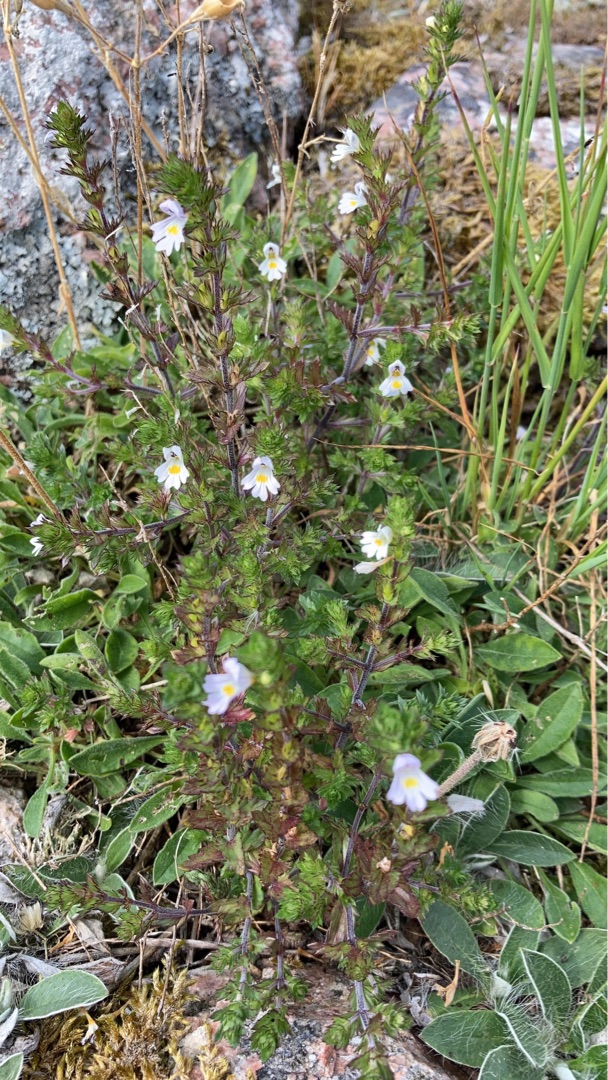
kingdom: Plantae
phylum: Tracheophyta
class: Magnoliopsida
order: Lamiales
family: Orobanchaceae
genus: Euphrasia
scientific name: Euphrasia stricta
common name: Spids øjentrøst
